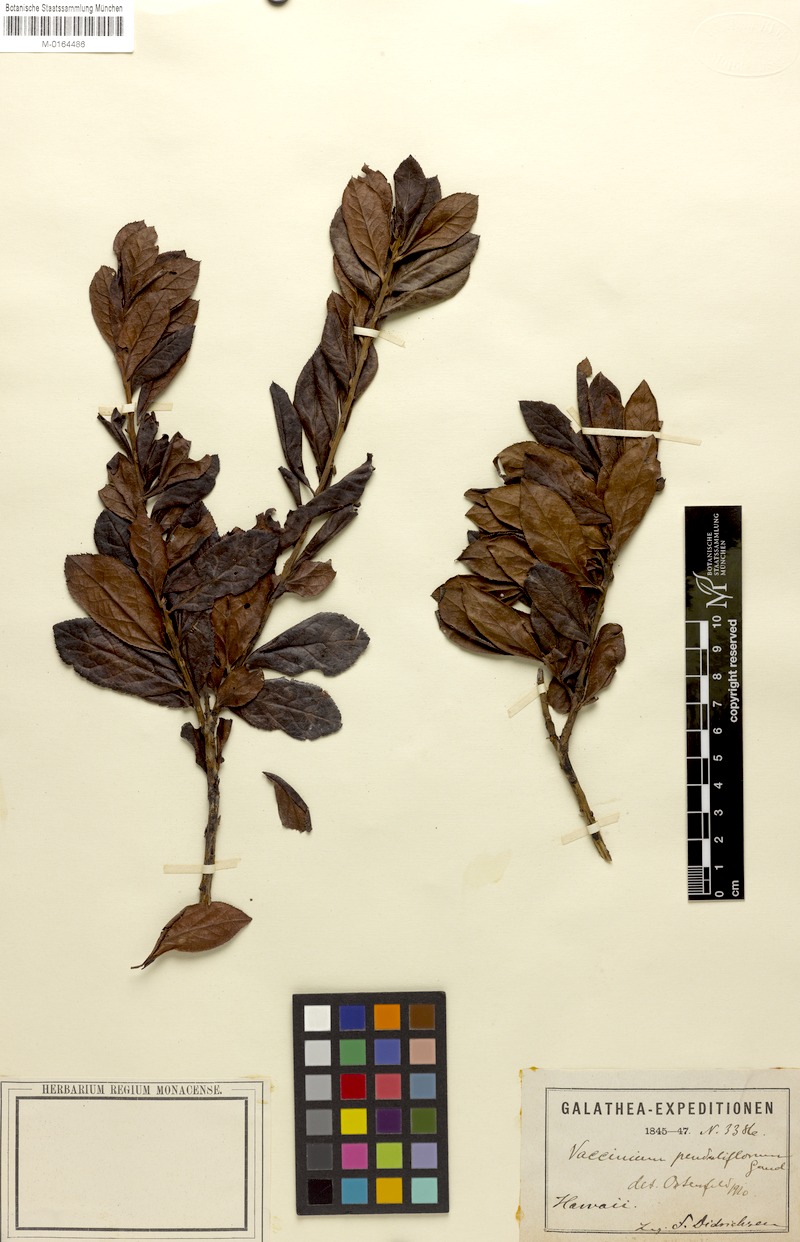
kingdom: Plantae
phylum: Tracheophyta
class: Magnoliopsida
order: Ericales
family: Ericaceae
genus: Vaccinium
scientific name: Vaccinium dentatum
